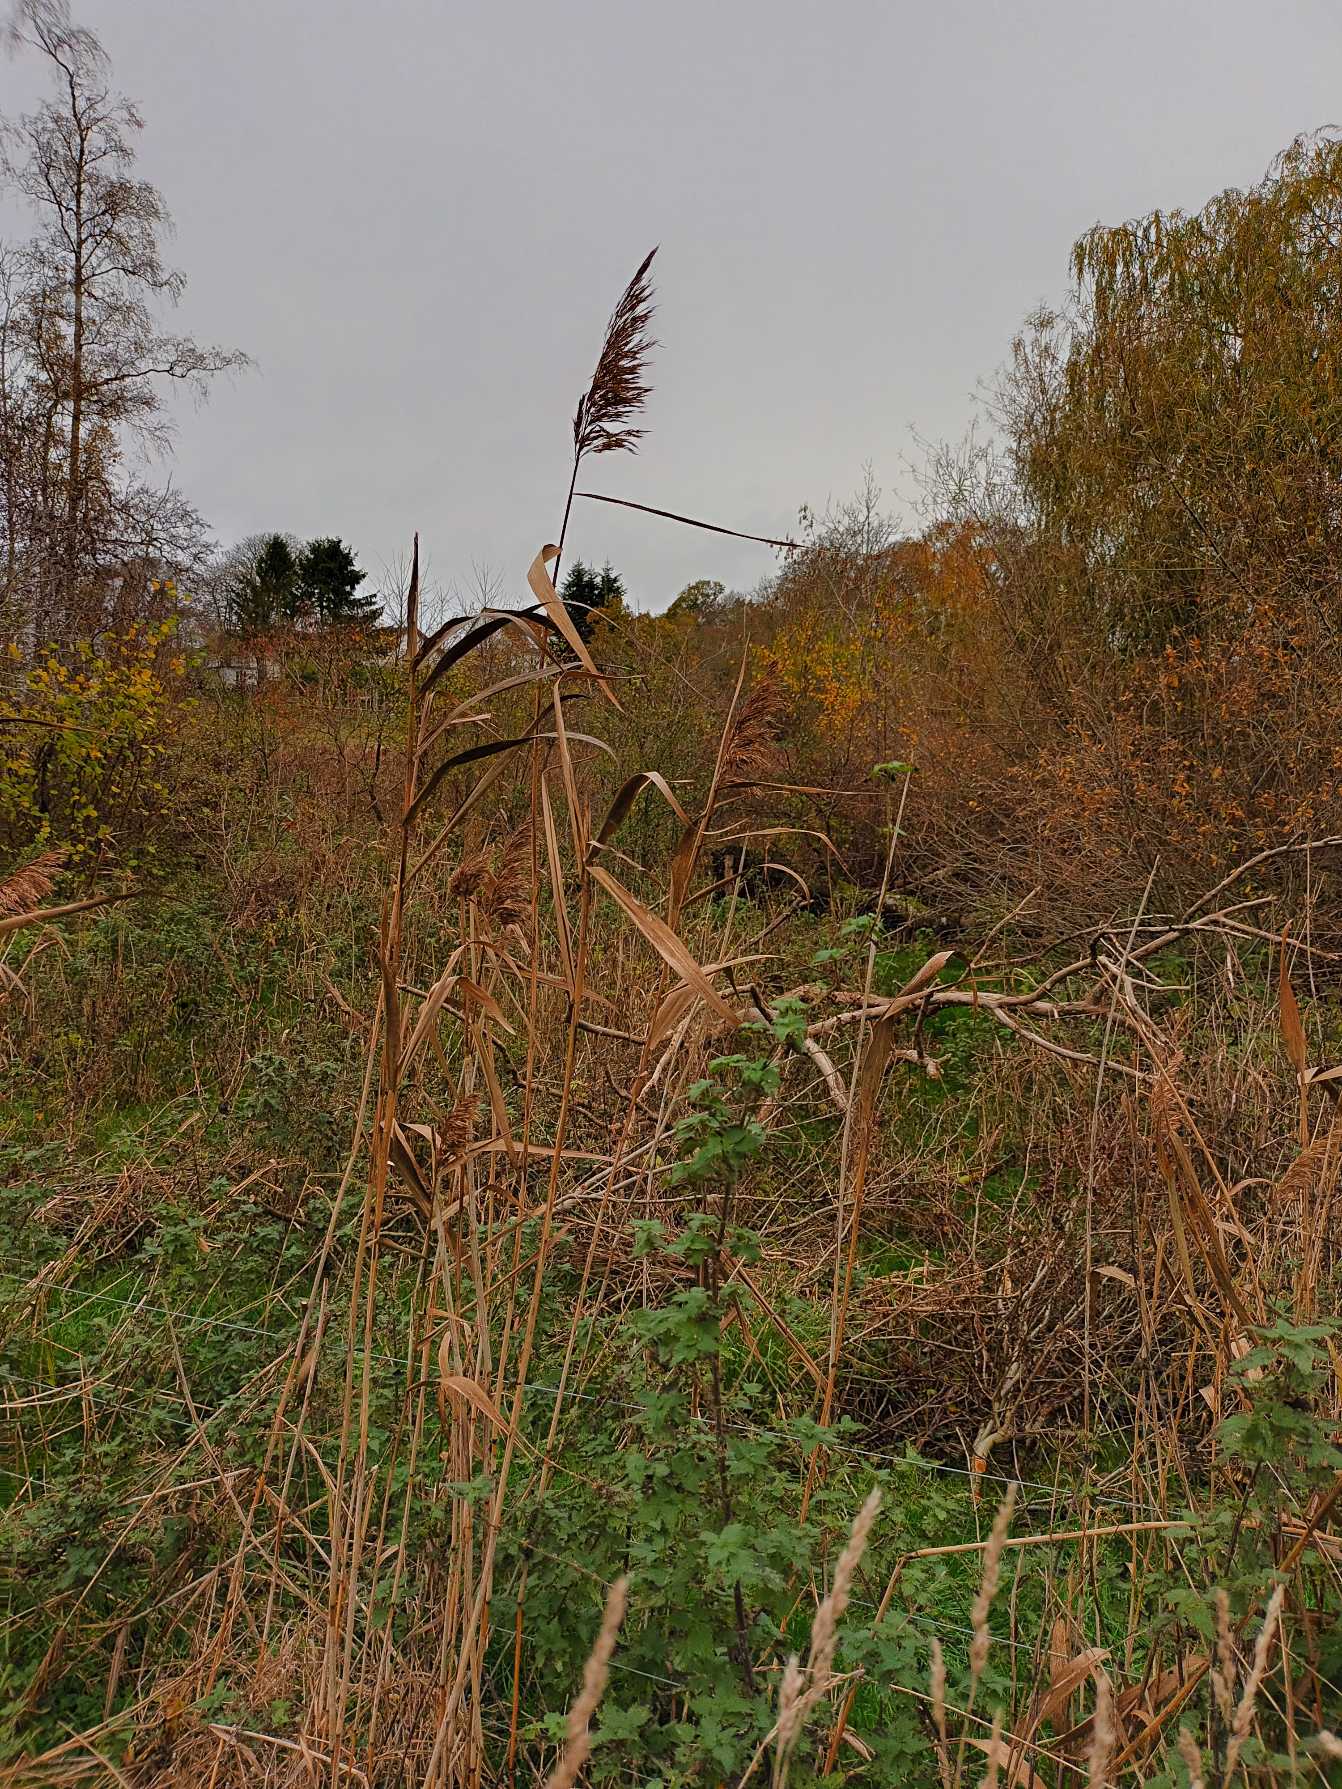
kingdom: Plantae
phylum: Tracheophyta
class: Liliopsida
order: Poales
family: Poaceae
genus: Phragmites
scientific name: Phragmites australis
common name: Tagrør
